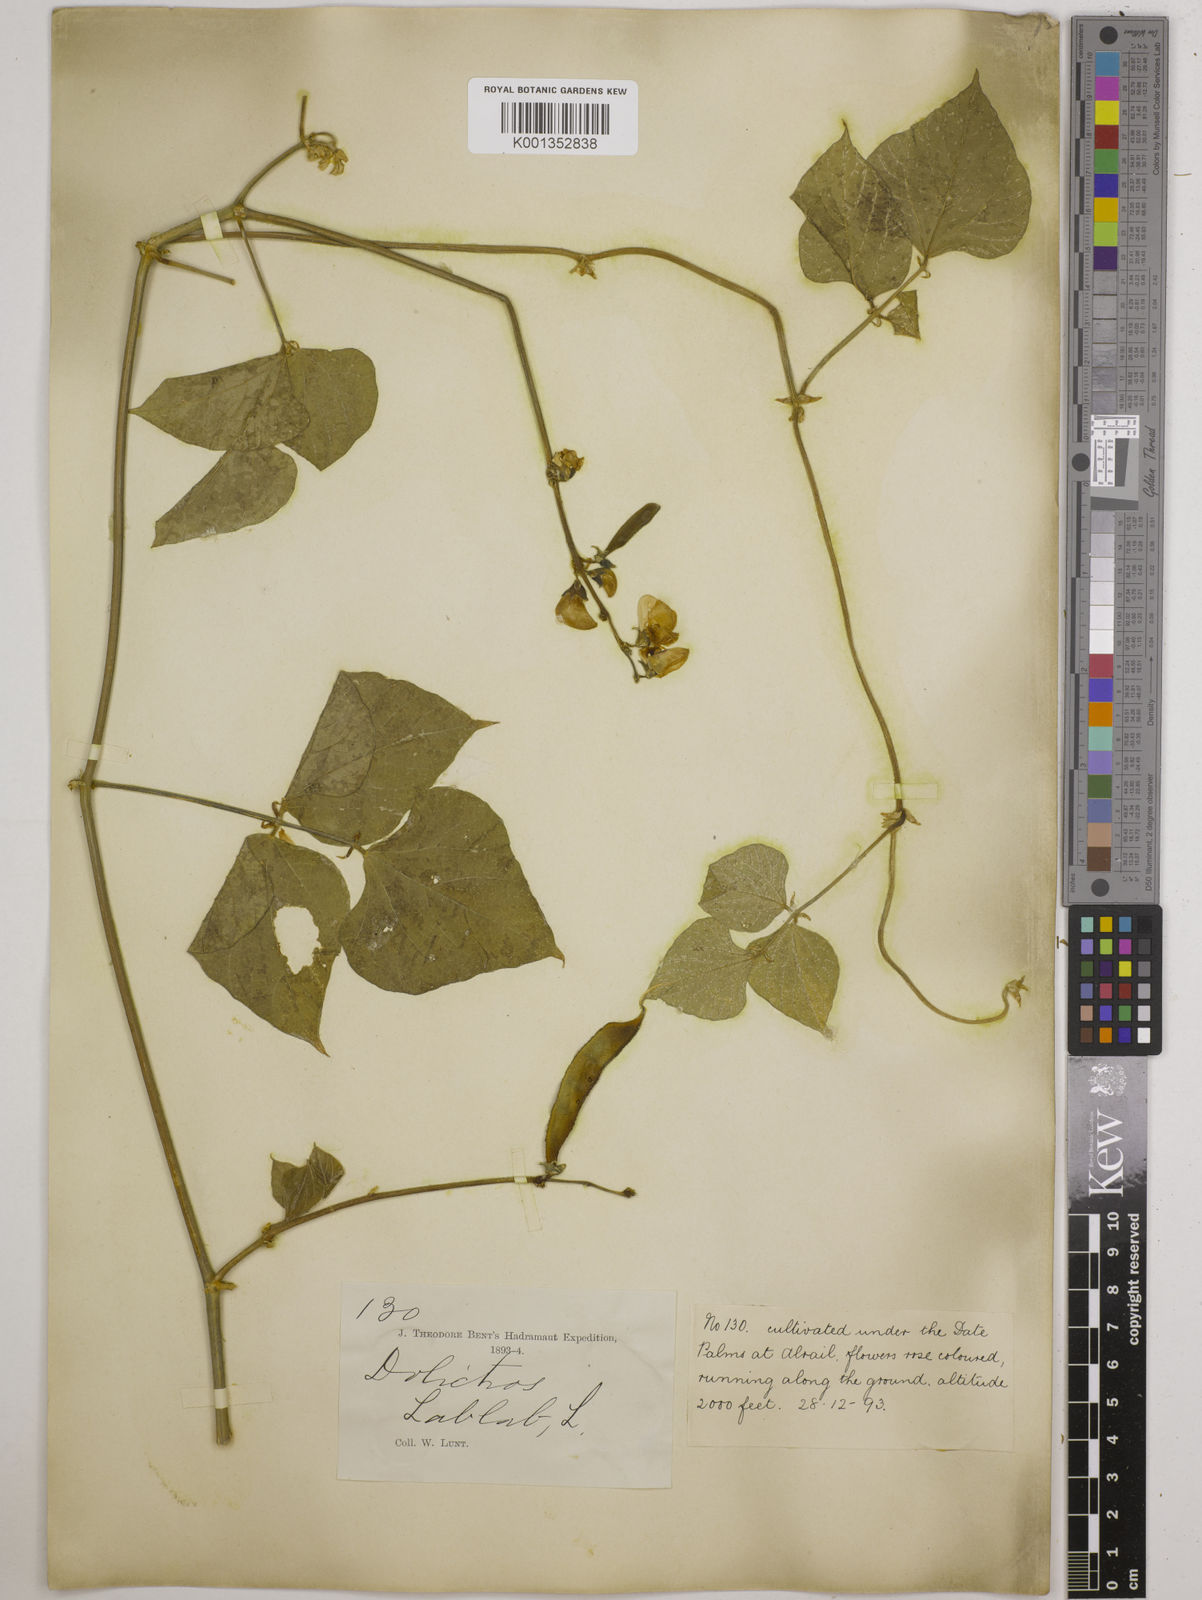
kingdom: Plantae
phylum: Tracheophyta
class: Magnoliopsida
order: Fabales
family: Fabaceae
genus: Lablab
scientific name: Lablab purpureus
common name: Lablab-bean
